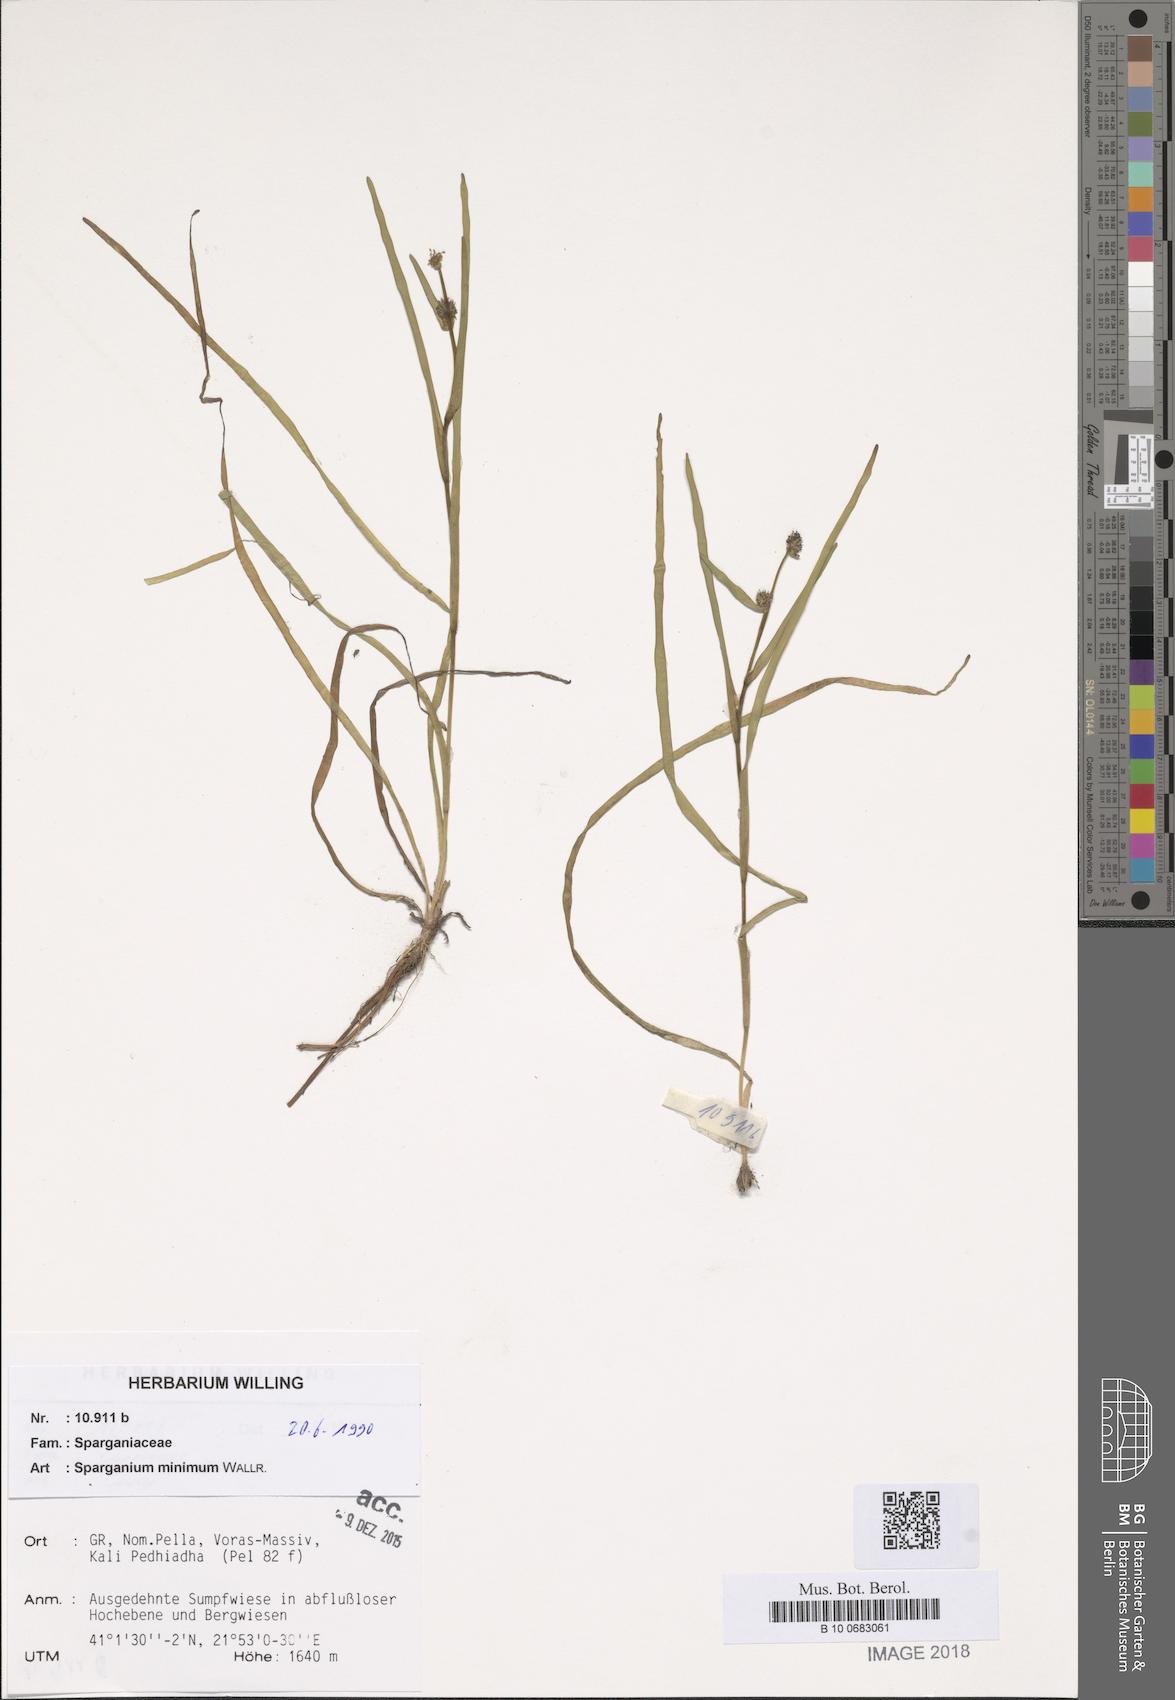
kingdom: Plantae
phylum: Tracheophyta
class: Liliopsida
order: Poales
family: Typhaceae
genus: Sparganium
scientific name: Sparganium natans
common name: Least bur-reed
